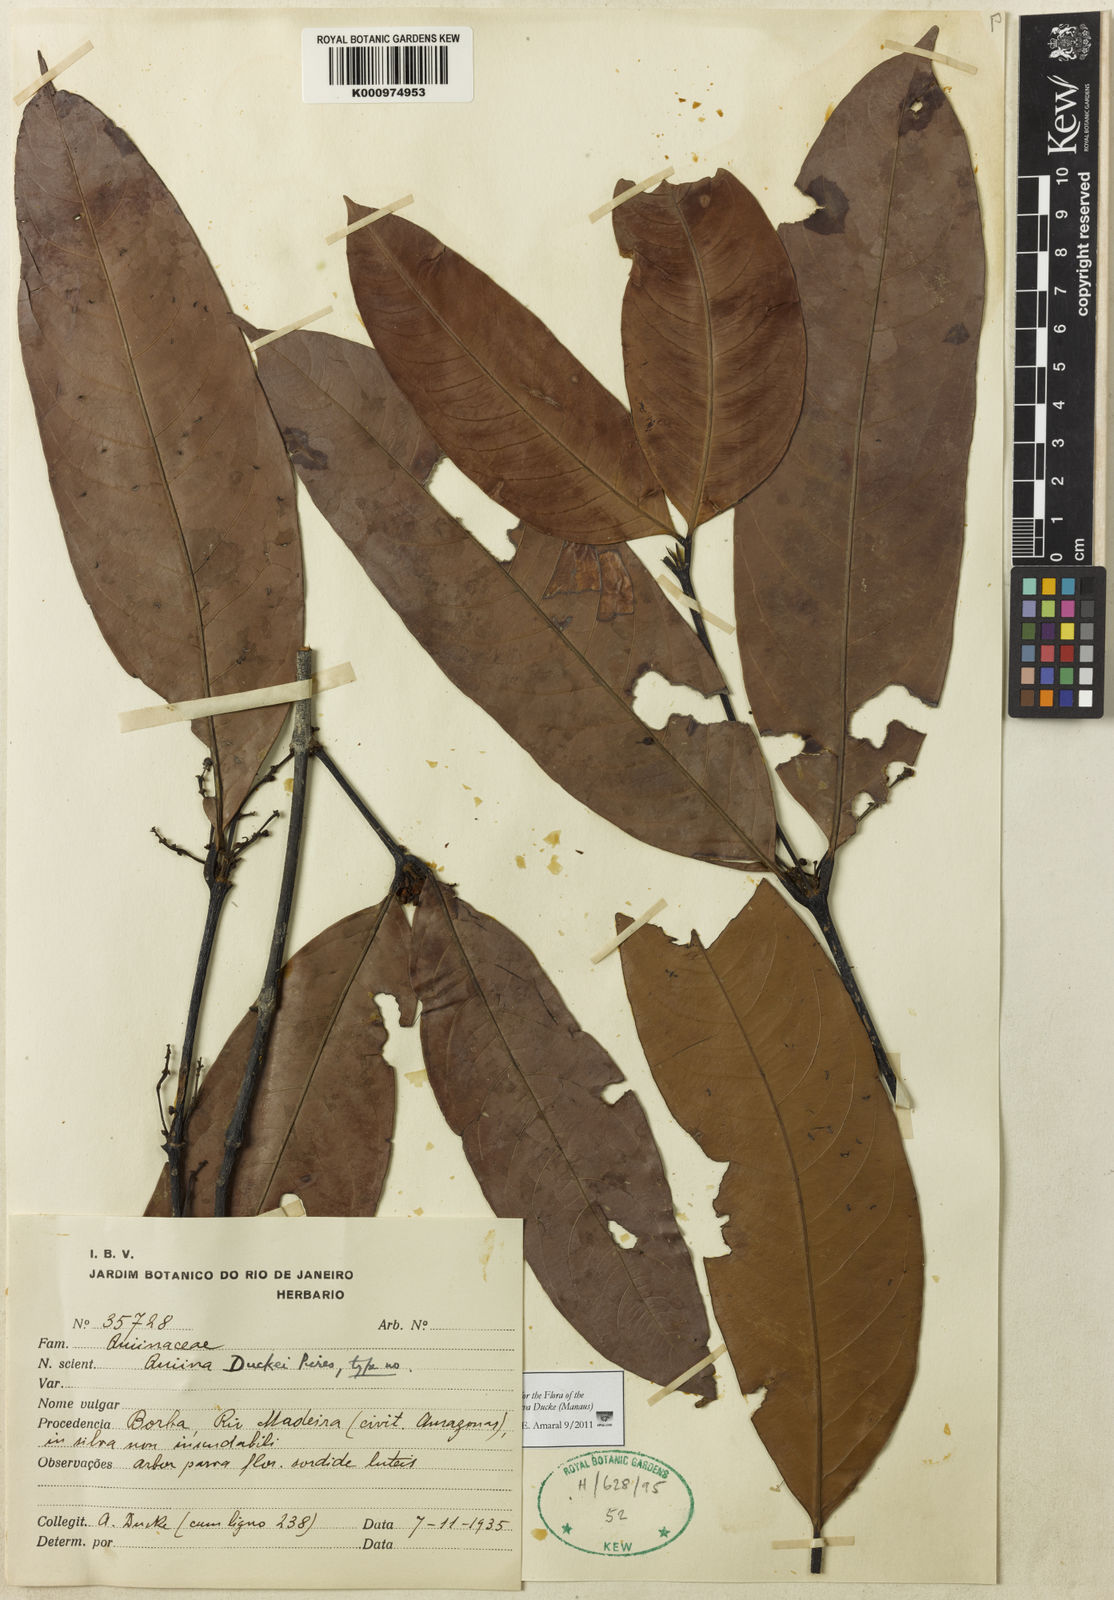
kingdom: Plantae
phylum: Tracheophyta
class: Magnoliopsida
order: Malpighiales
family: Quiinaceae
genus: Quiina
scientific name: Quiina negrensis
